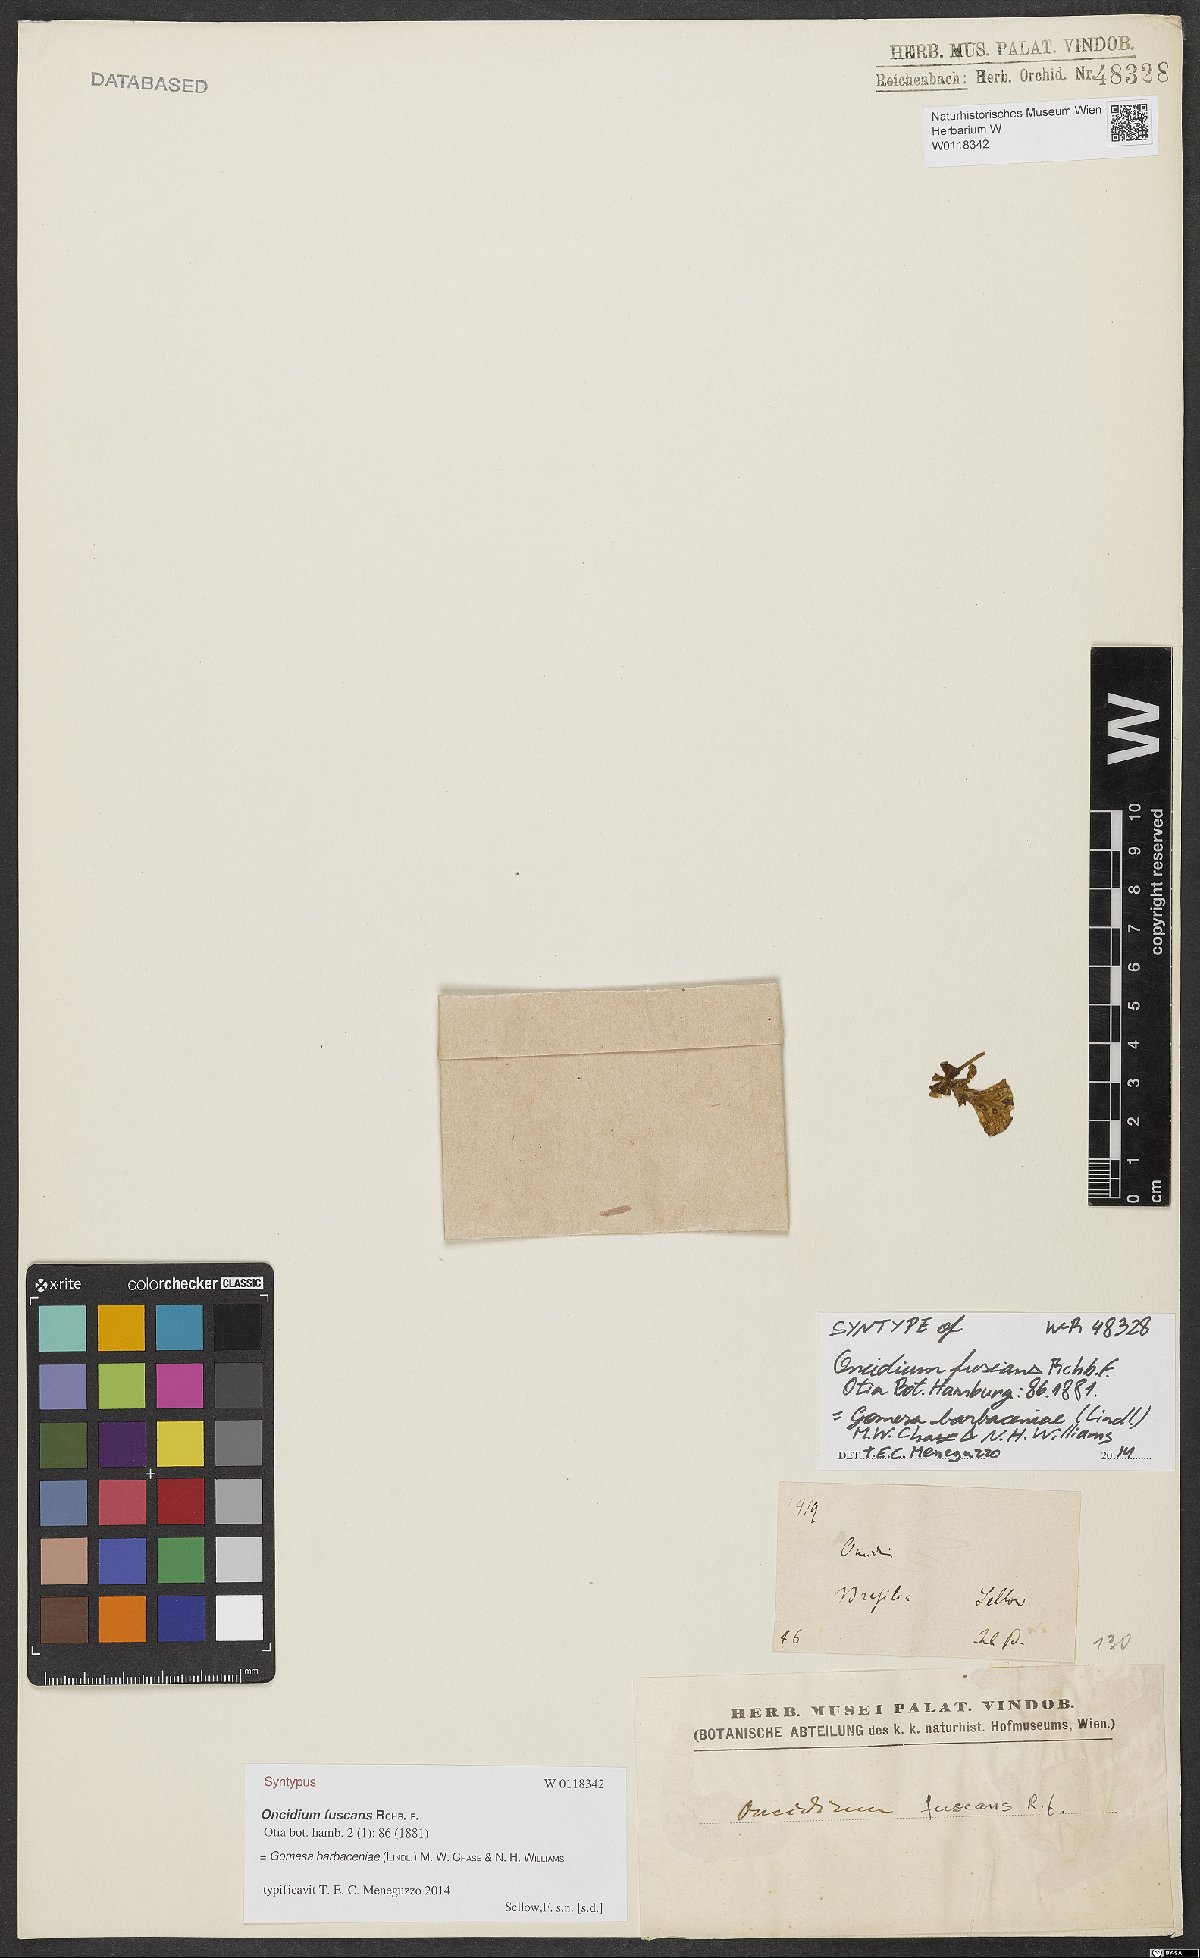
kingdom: Plantae
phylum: Tracheophyta
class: Liliopsida
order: Asparagales
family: Orchidaceae
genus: Gomesa
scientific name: Gomesa fuscans
